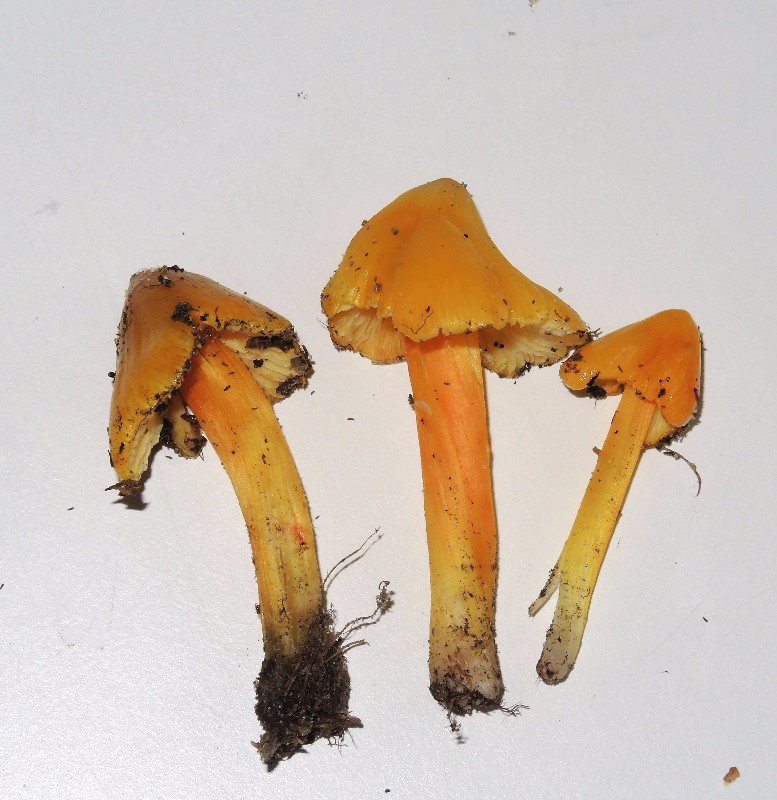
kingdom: Fungi
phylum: Basidiomycota
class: Agaricomycetes
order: Agaricales
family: Hygrophoraceae
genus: Hygrocybe
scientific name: Hygrocybe acutoconica
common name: spidspuklet vokshat
